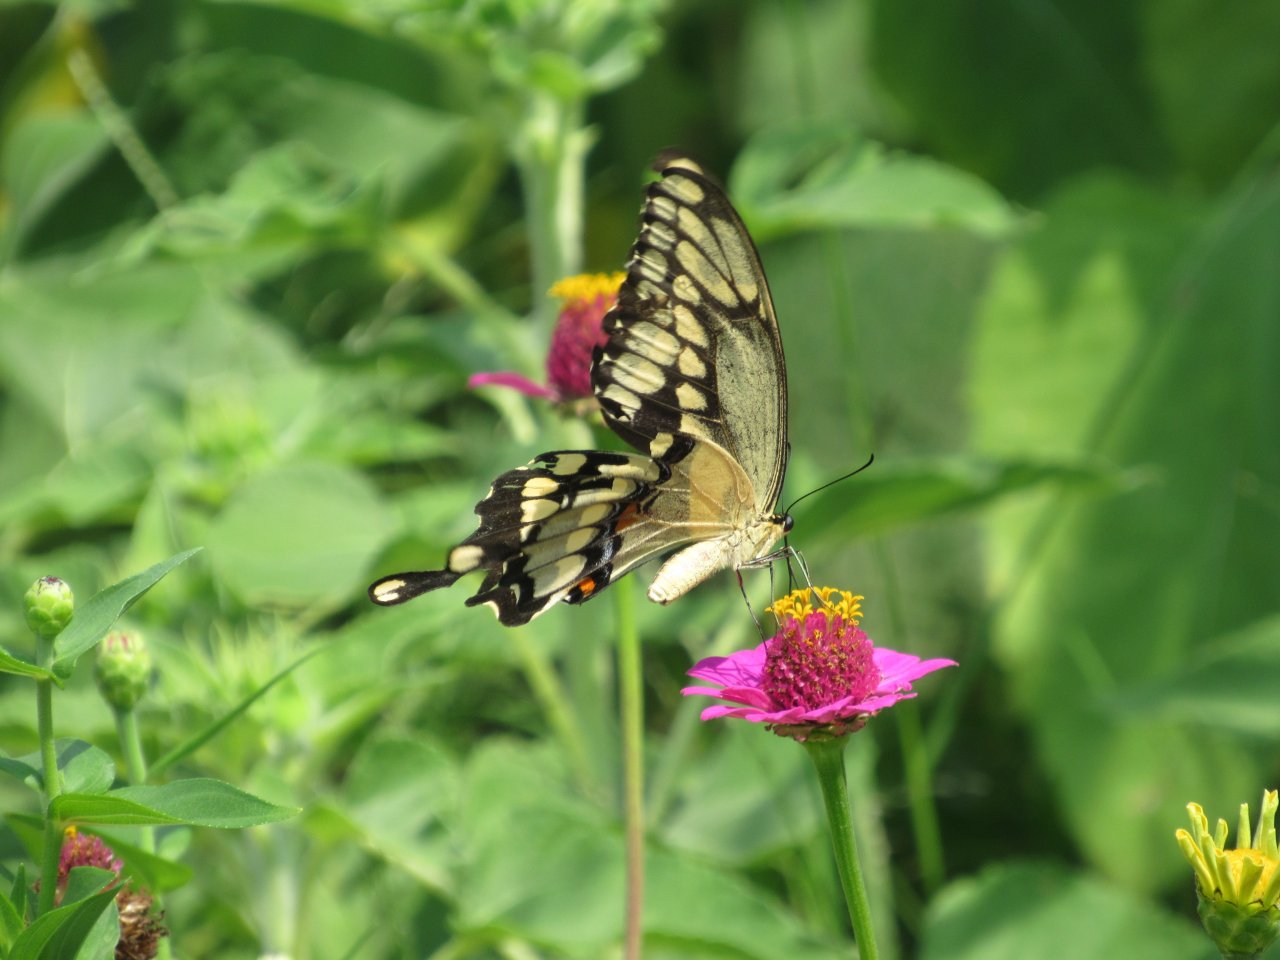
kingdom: Animalia
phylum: Arthropoda
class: Insecta
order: Lepidoptera
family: Papilionidae
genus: Papilio
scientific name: Papilio cresphontes
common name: Eastern Giant Swallowtail
